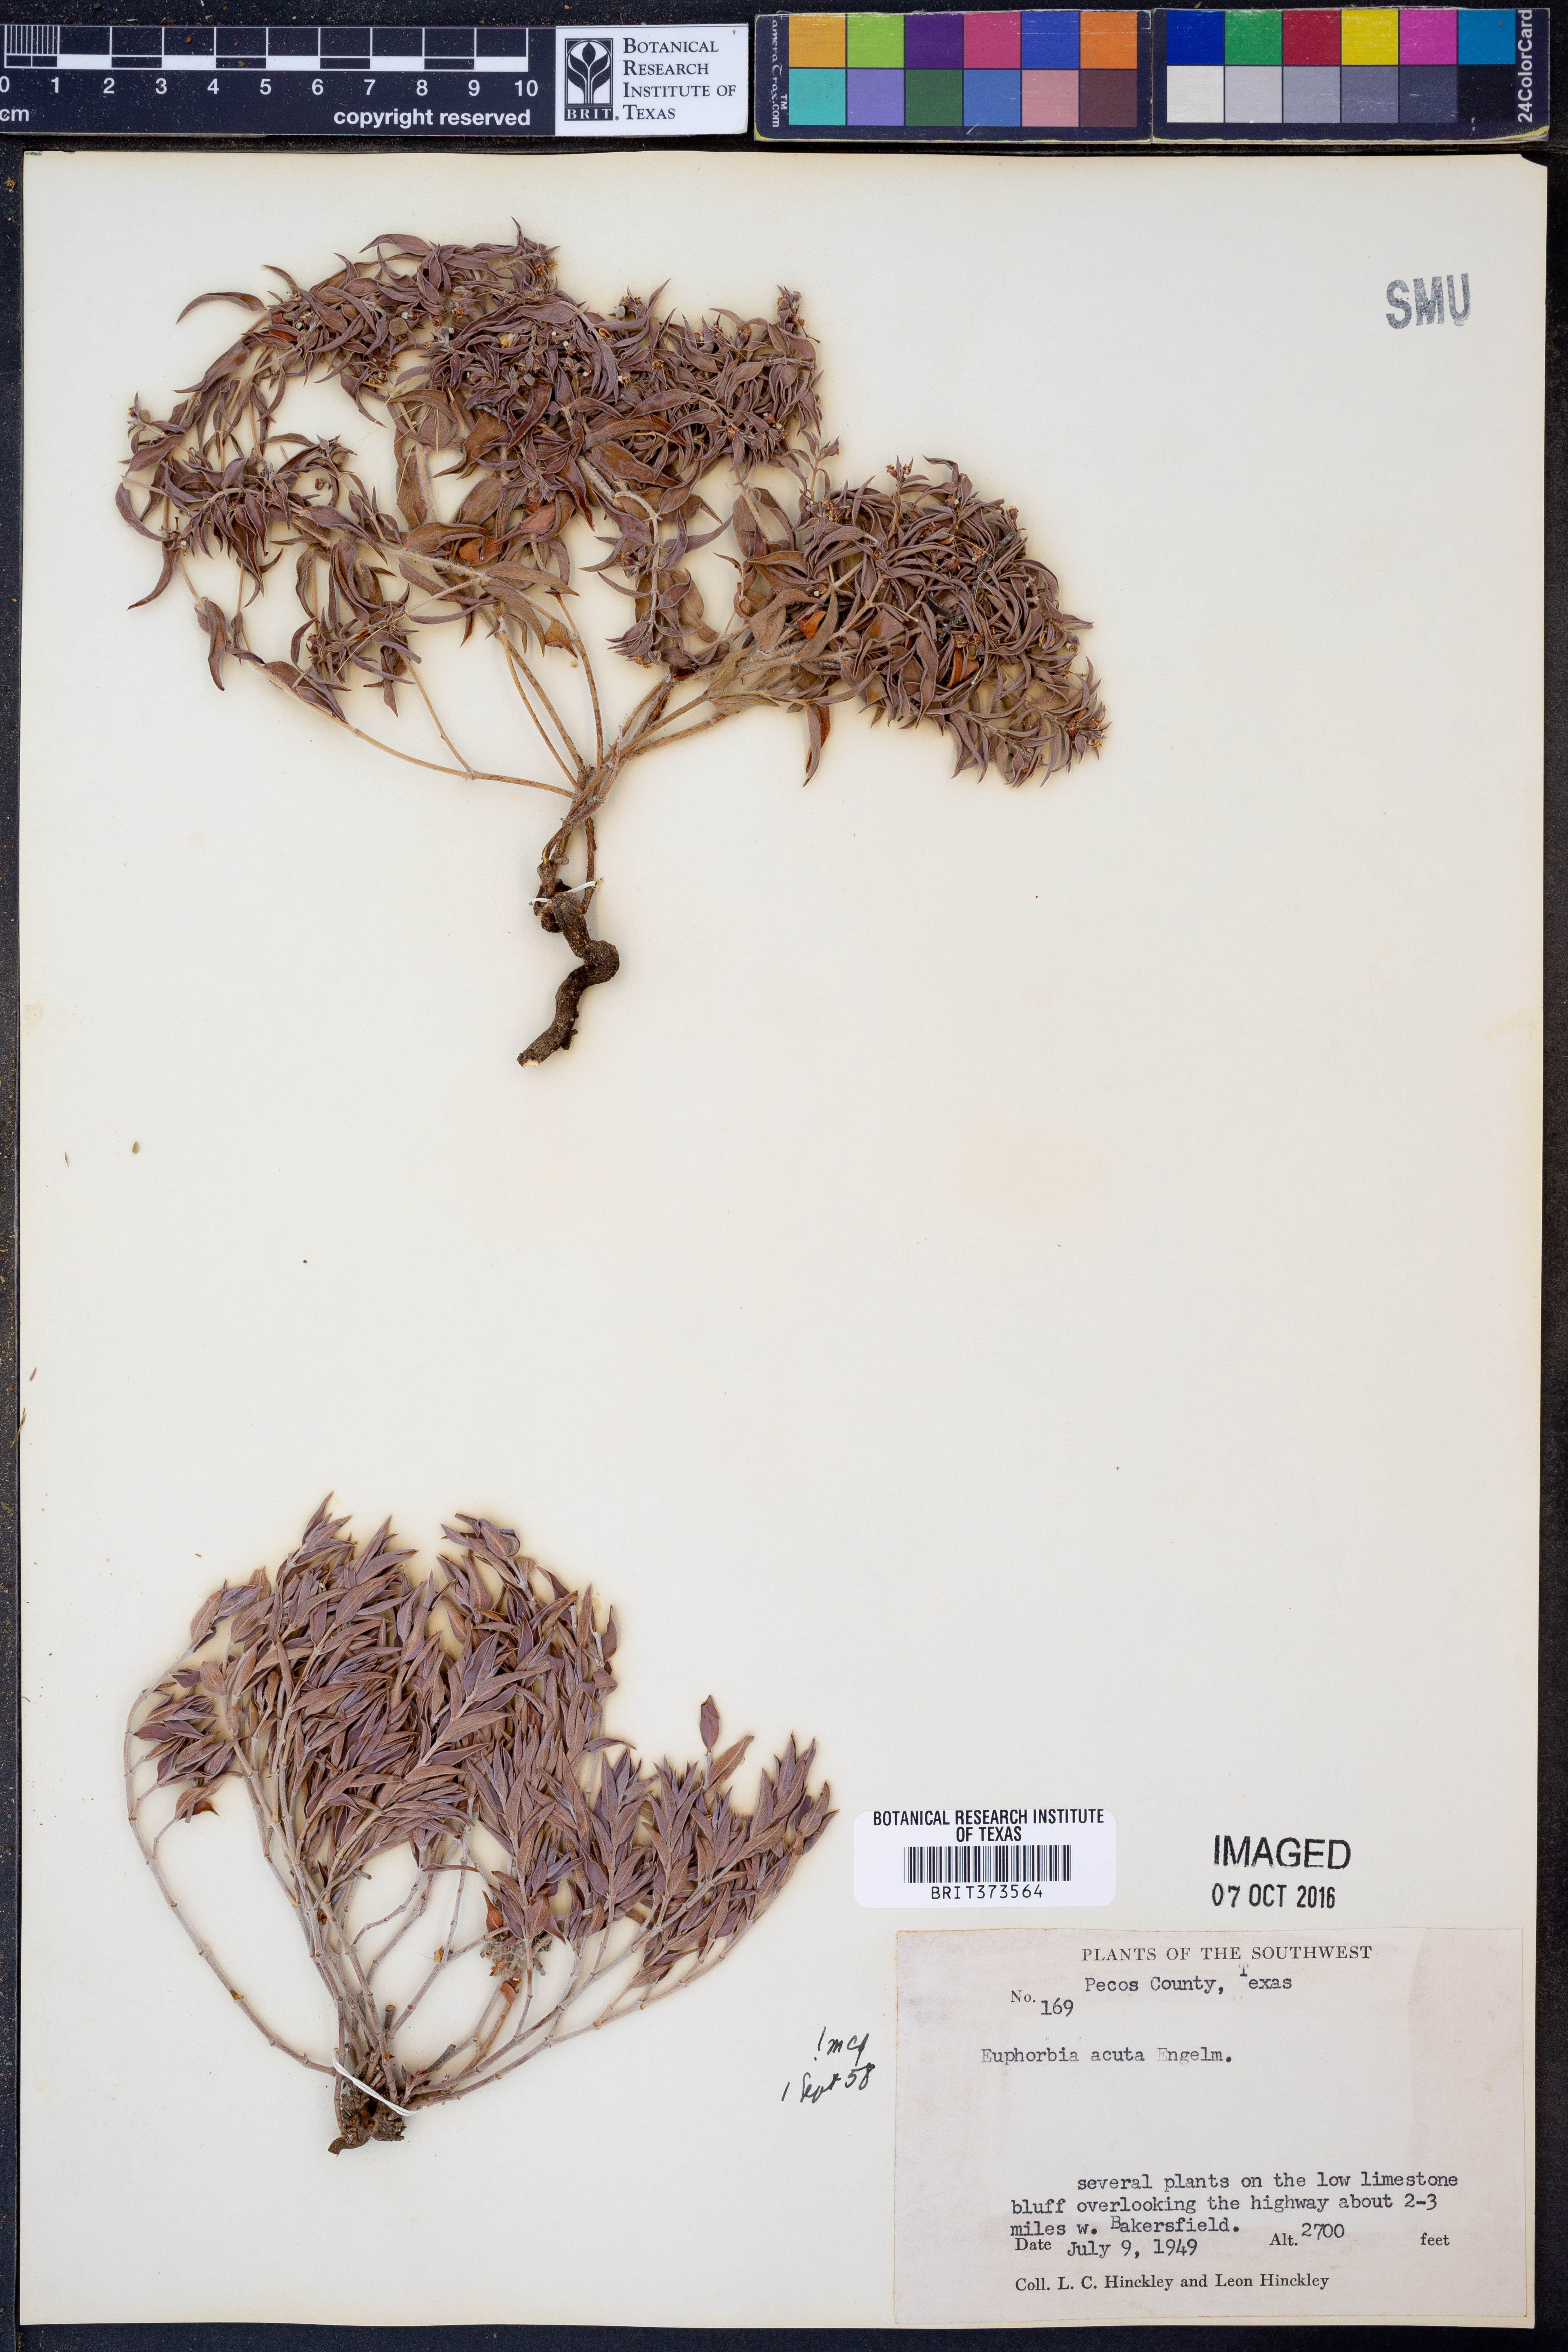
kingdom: Plantae
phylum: Tracheophyta
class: Magnoliopsida
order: Malpighiales
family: Euphorbiaceae
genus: Euphorbia
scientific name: Euphorbia acuta
